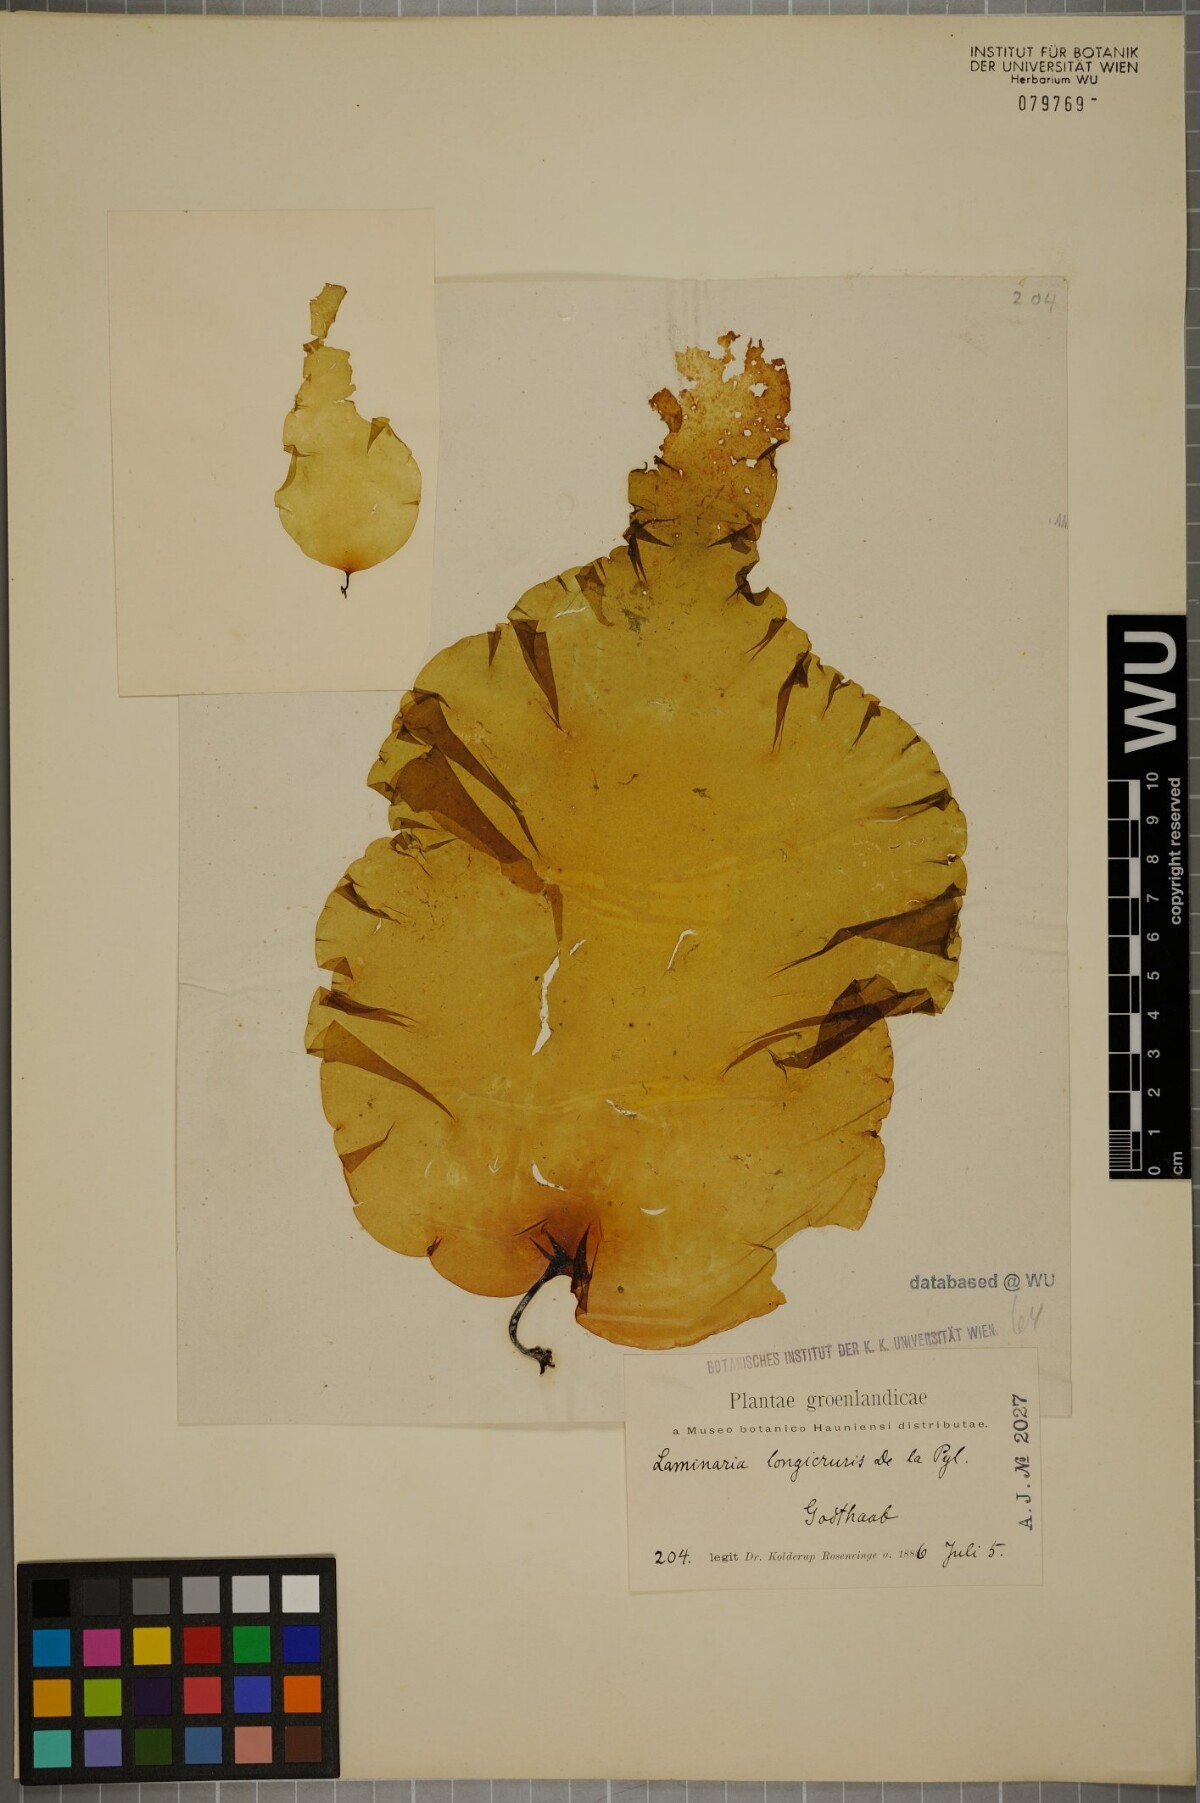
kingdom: Chromista
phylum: Ochrophyta
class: Phaeophyceae
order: Laminariales
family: Laminariaceae
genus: Saccharina
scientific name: Saccharina longicruris
